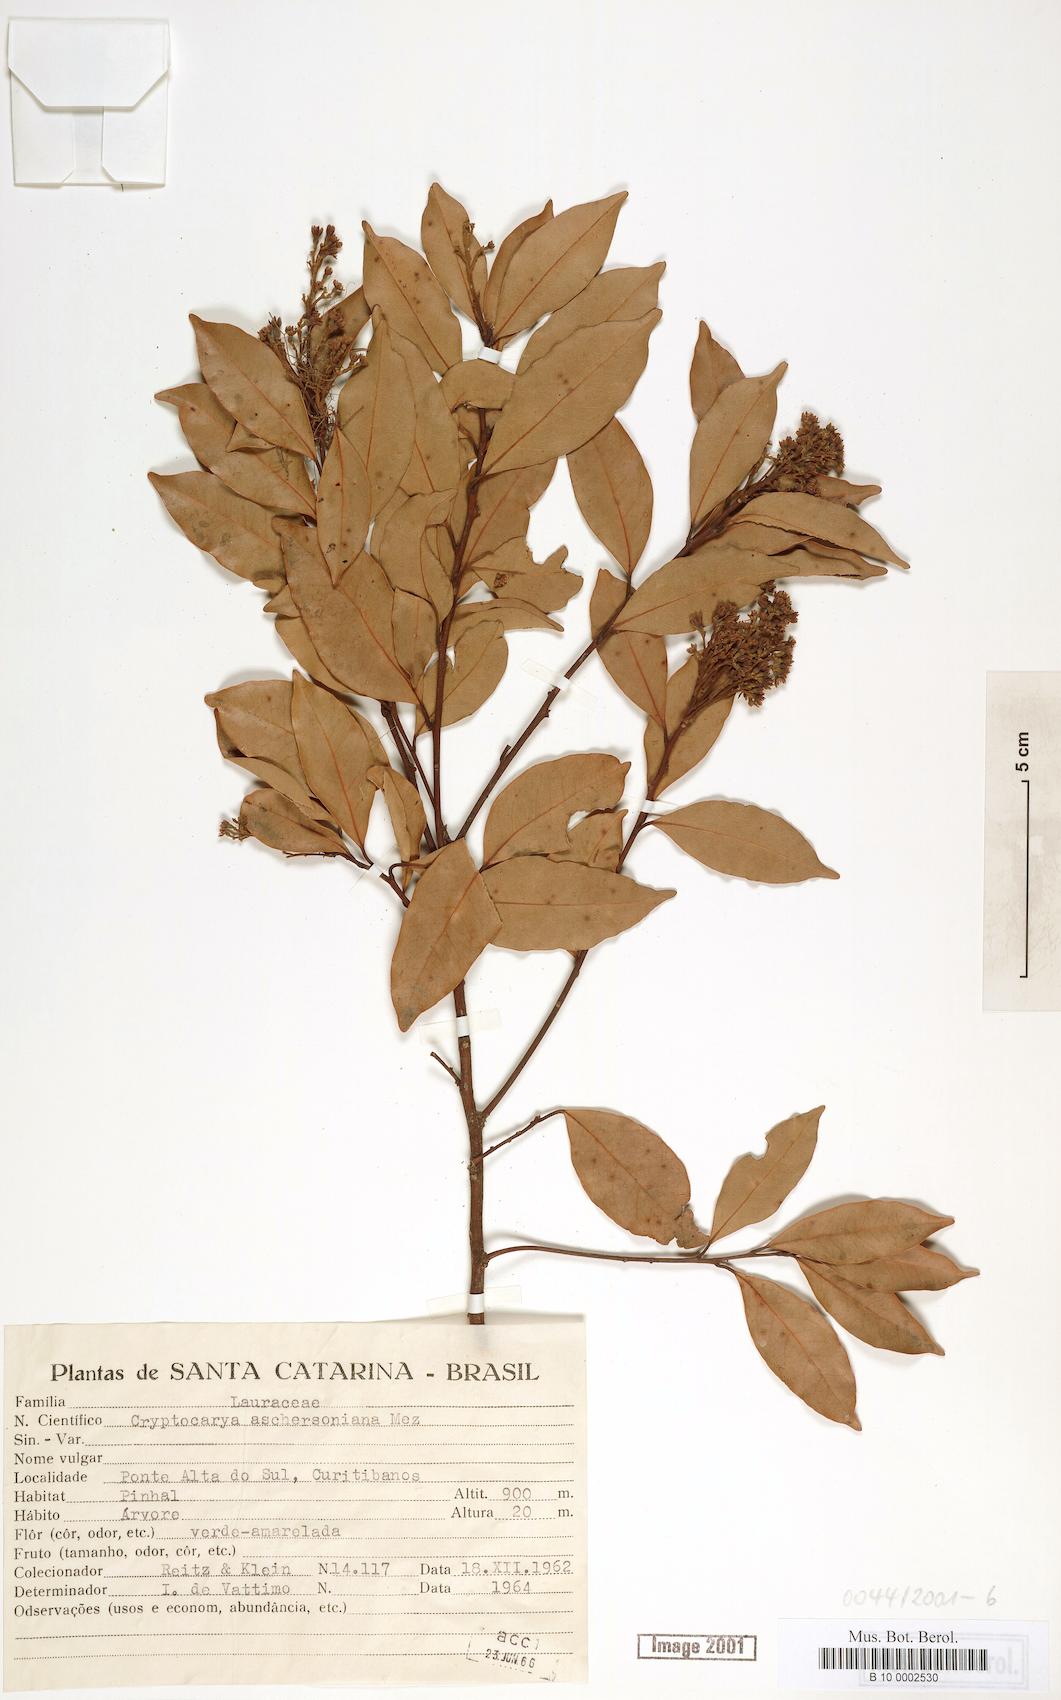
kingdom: Plantae
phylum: Tracheophyta
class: Magnoliopsida
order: Laurales
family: Lauraceae
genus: Cryptocarya
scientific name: Cryptocarya aschersoniana
